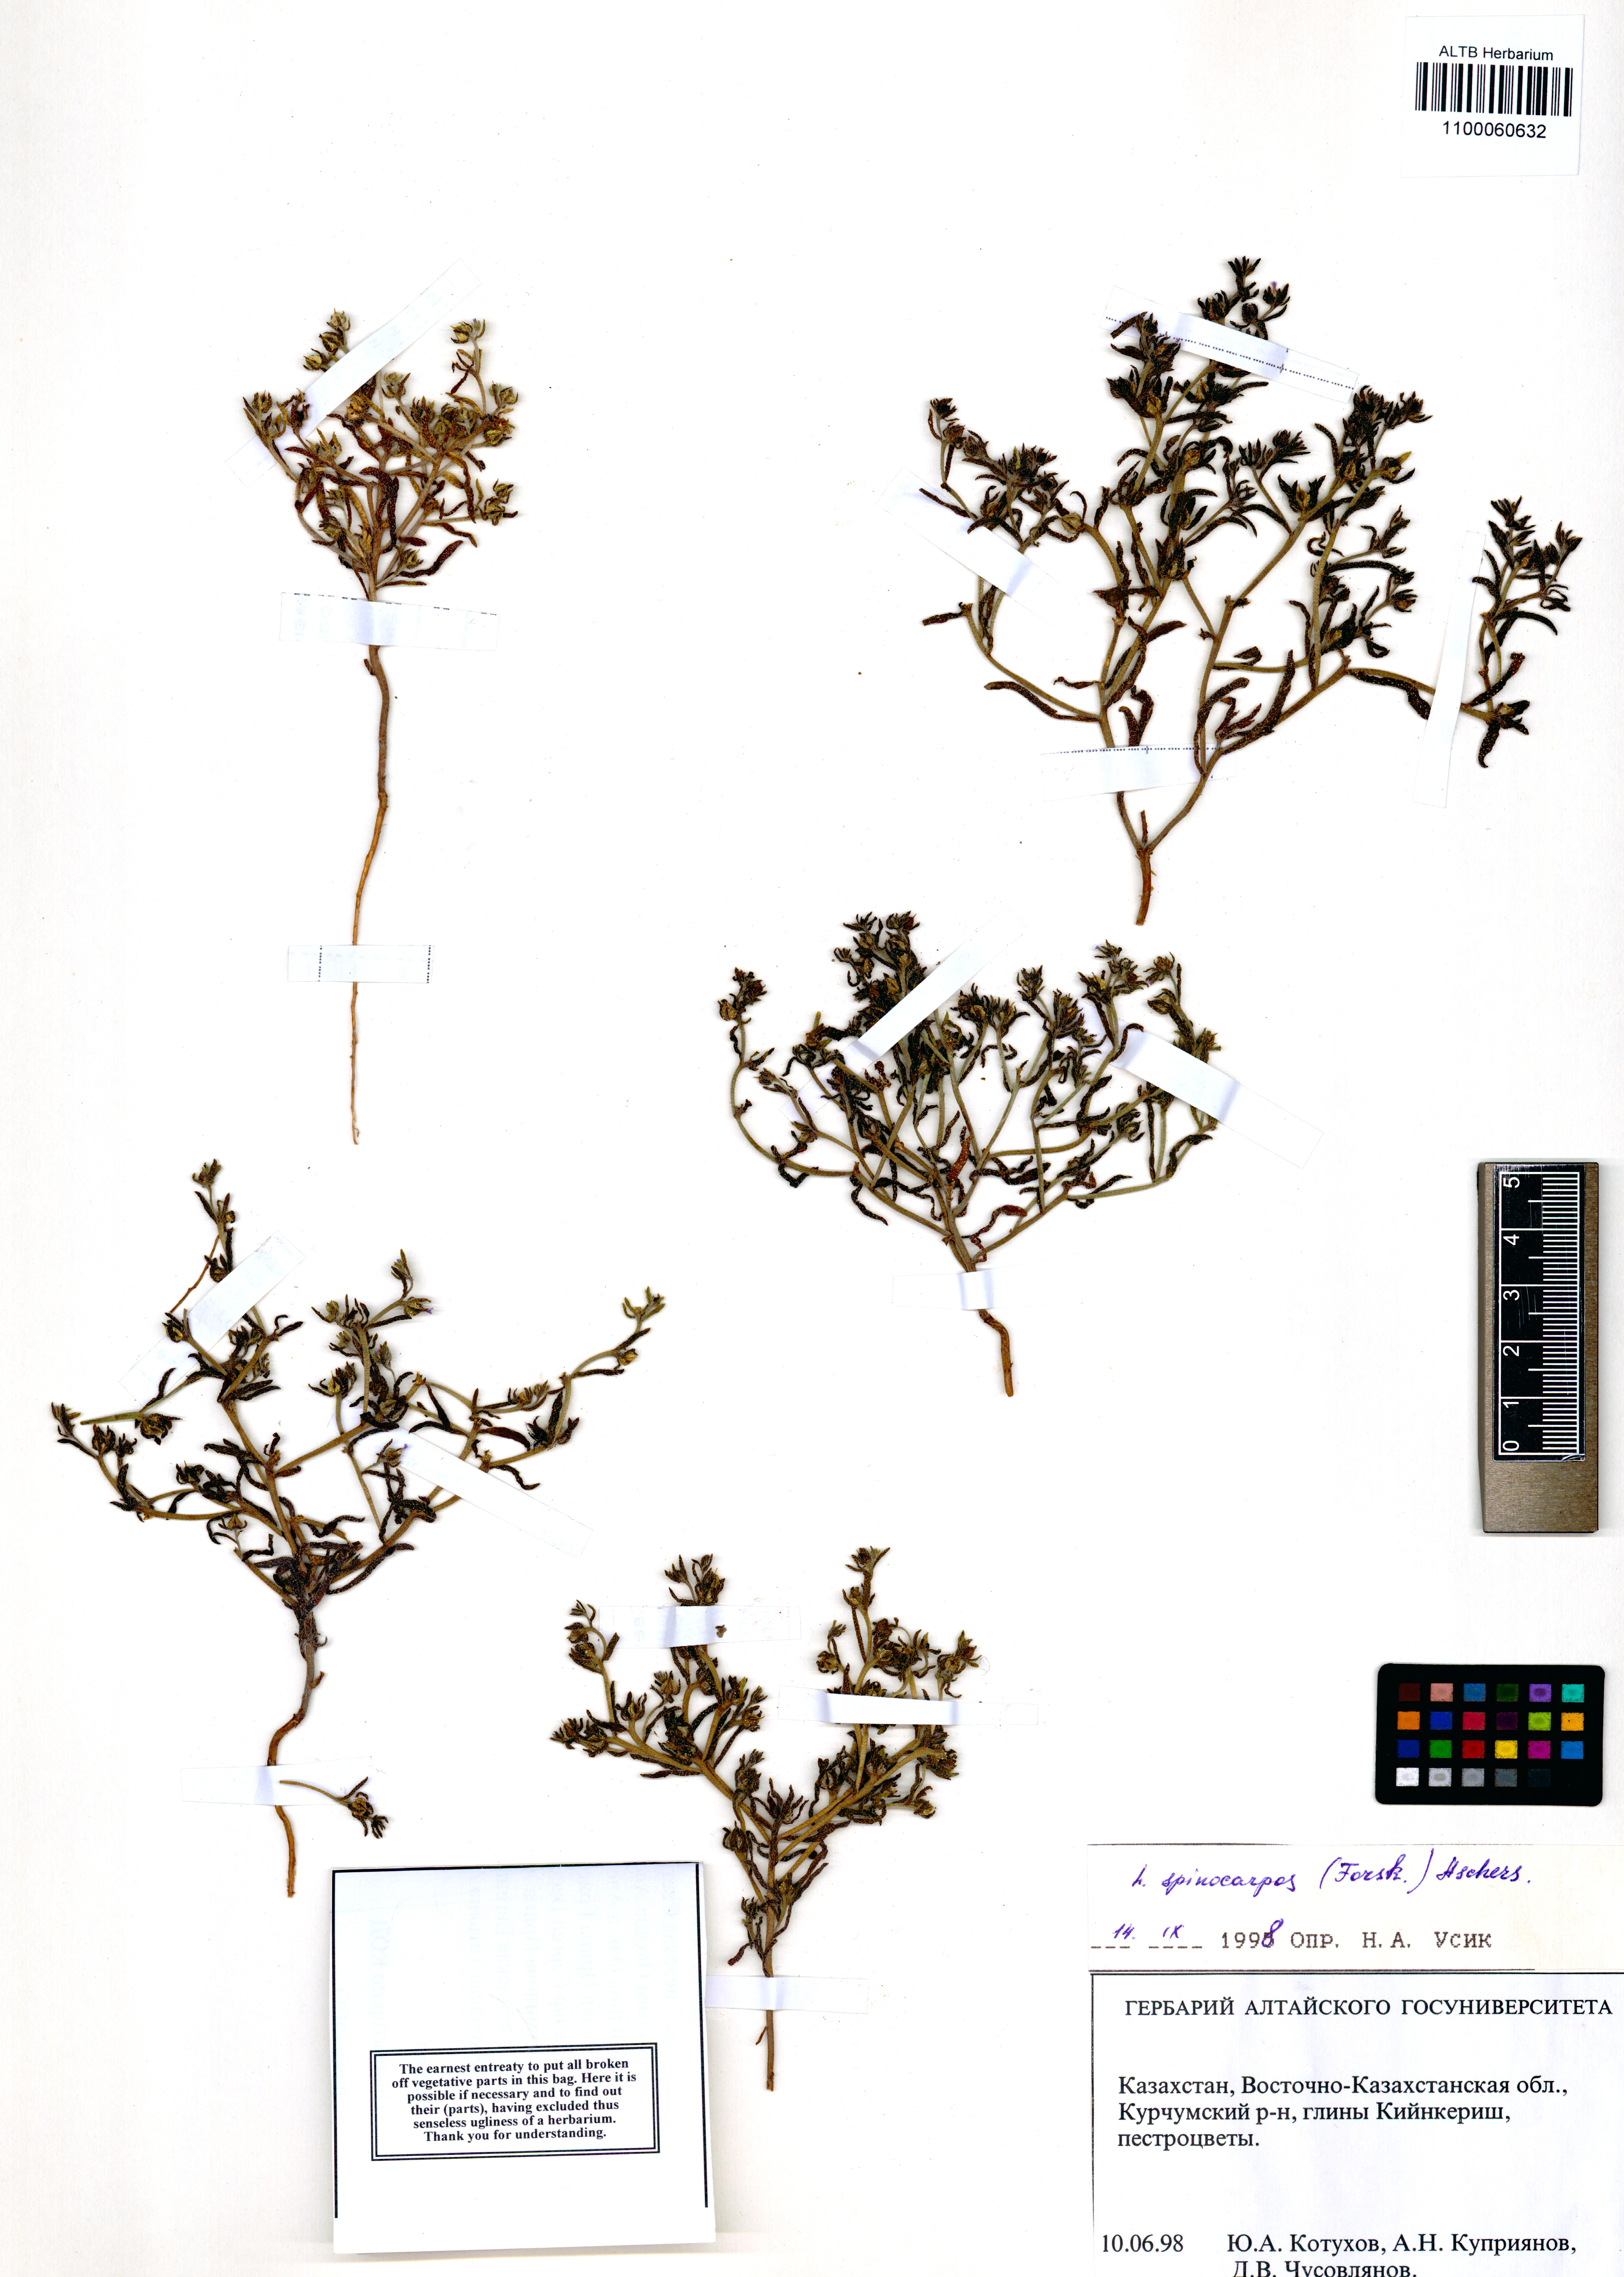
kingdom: Plantae
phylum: Tracheophyta
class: Magnoliopsida
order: Boraginales
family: Boraginaceae
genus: Lappula
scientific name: Lappula spinocarpos
